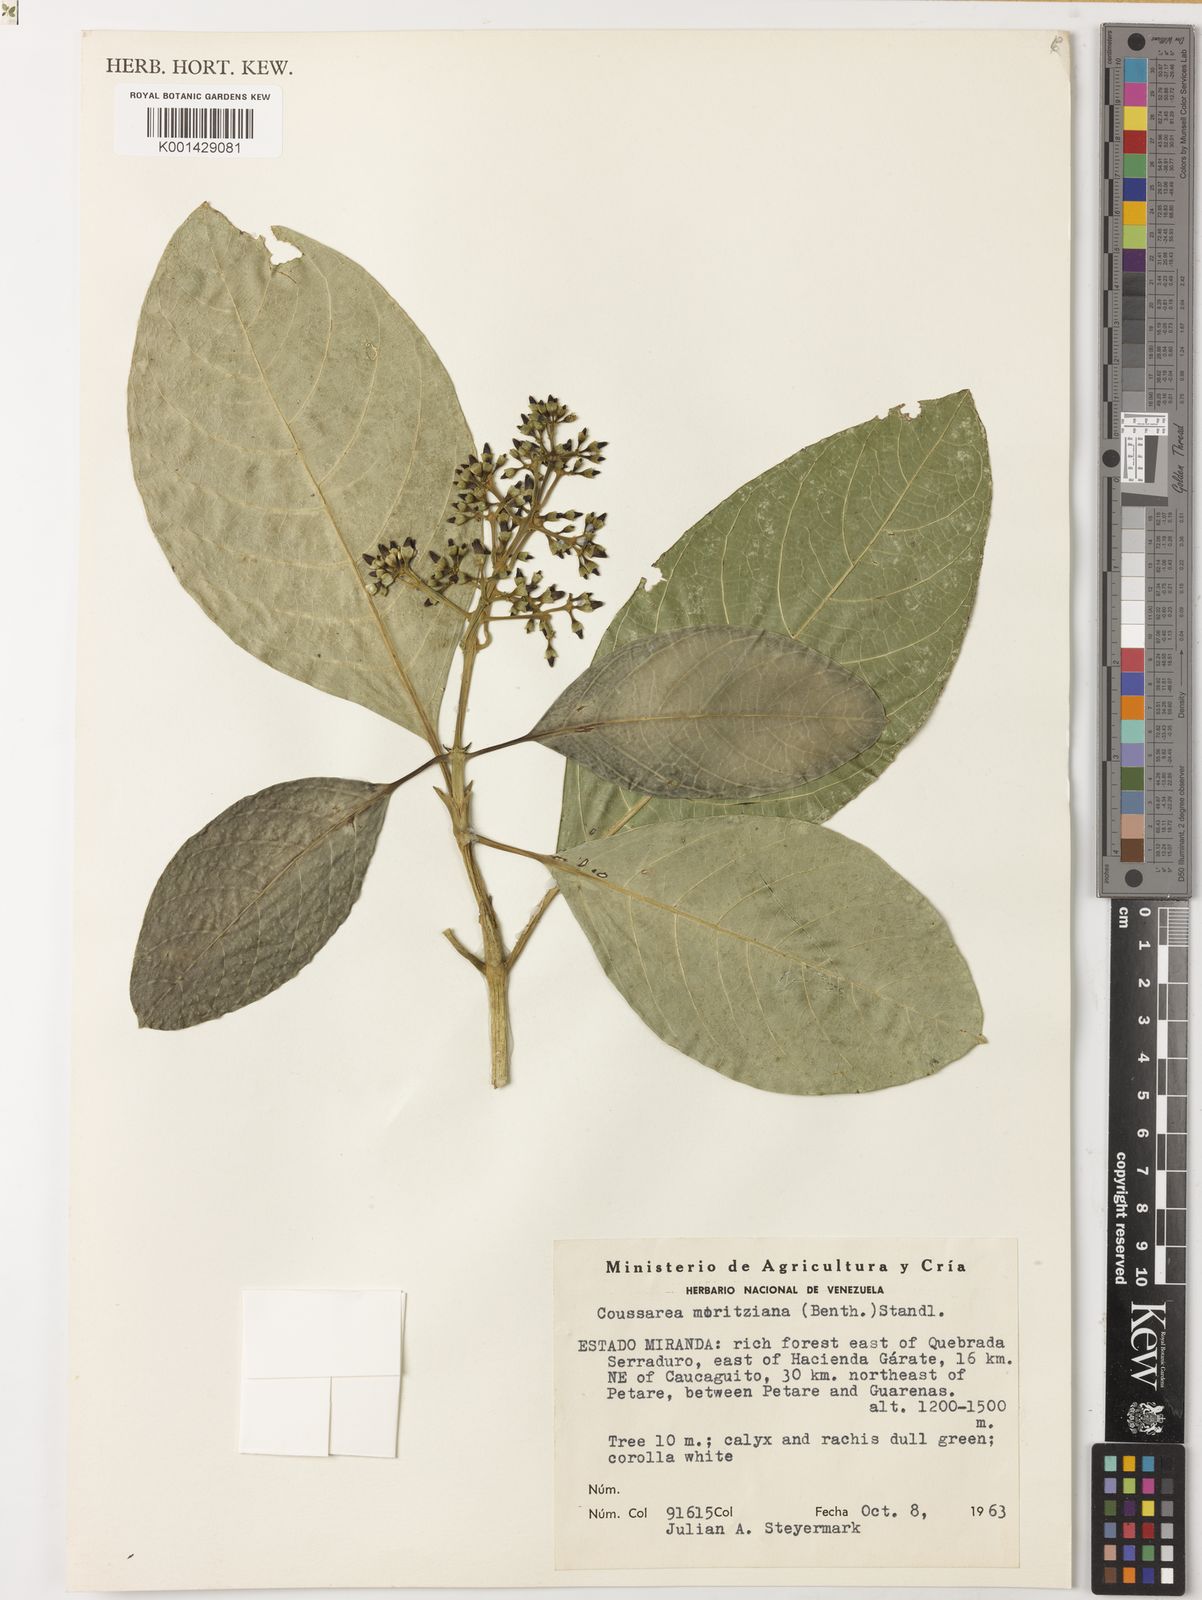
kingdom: Plantae
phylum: Tracheophyta
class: Magnoliopsida
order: Gentianales
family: Rubiaceae
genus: Coussarea
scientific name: Coussarea moritziana
